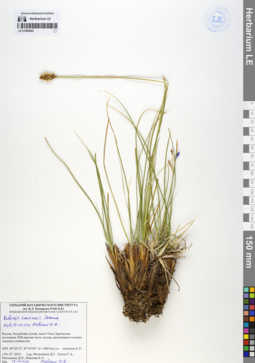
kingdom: Plantae
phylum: Tracheophyta
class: Liliopsida
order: Poales
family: Cyperaceae
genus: Carex
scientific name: Carex borealipolaris
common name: Siberian bog sedge
